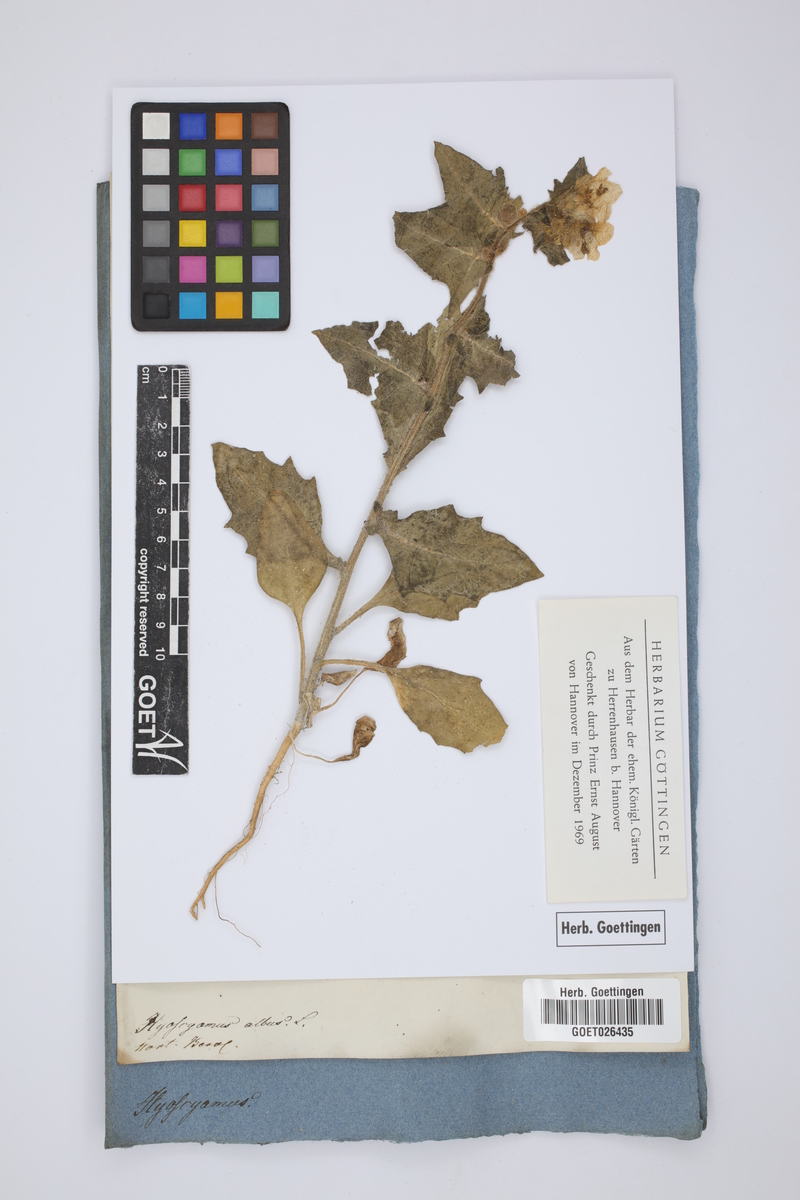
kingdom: Plantae
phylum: Tracheophyta
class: Magnoliopsida
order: Solanales
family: Solanaceae
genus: Hyoscyamus
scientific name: Hyoscyamus albus
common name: White henbane
